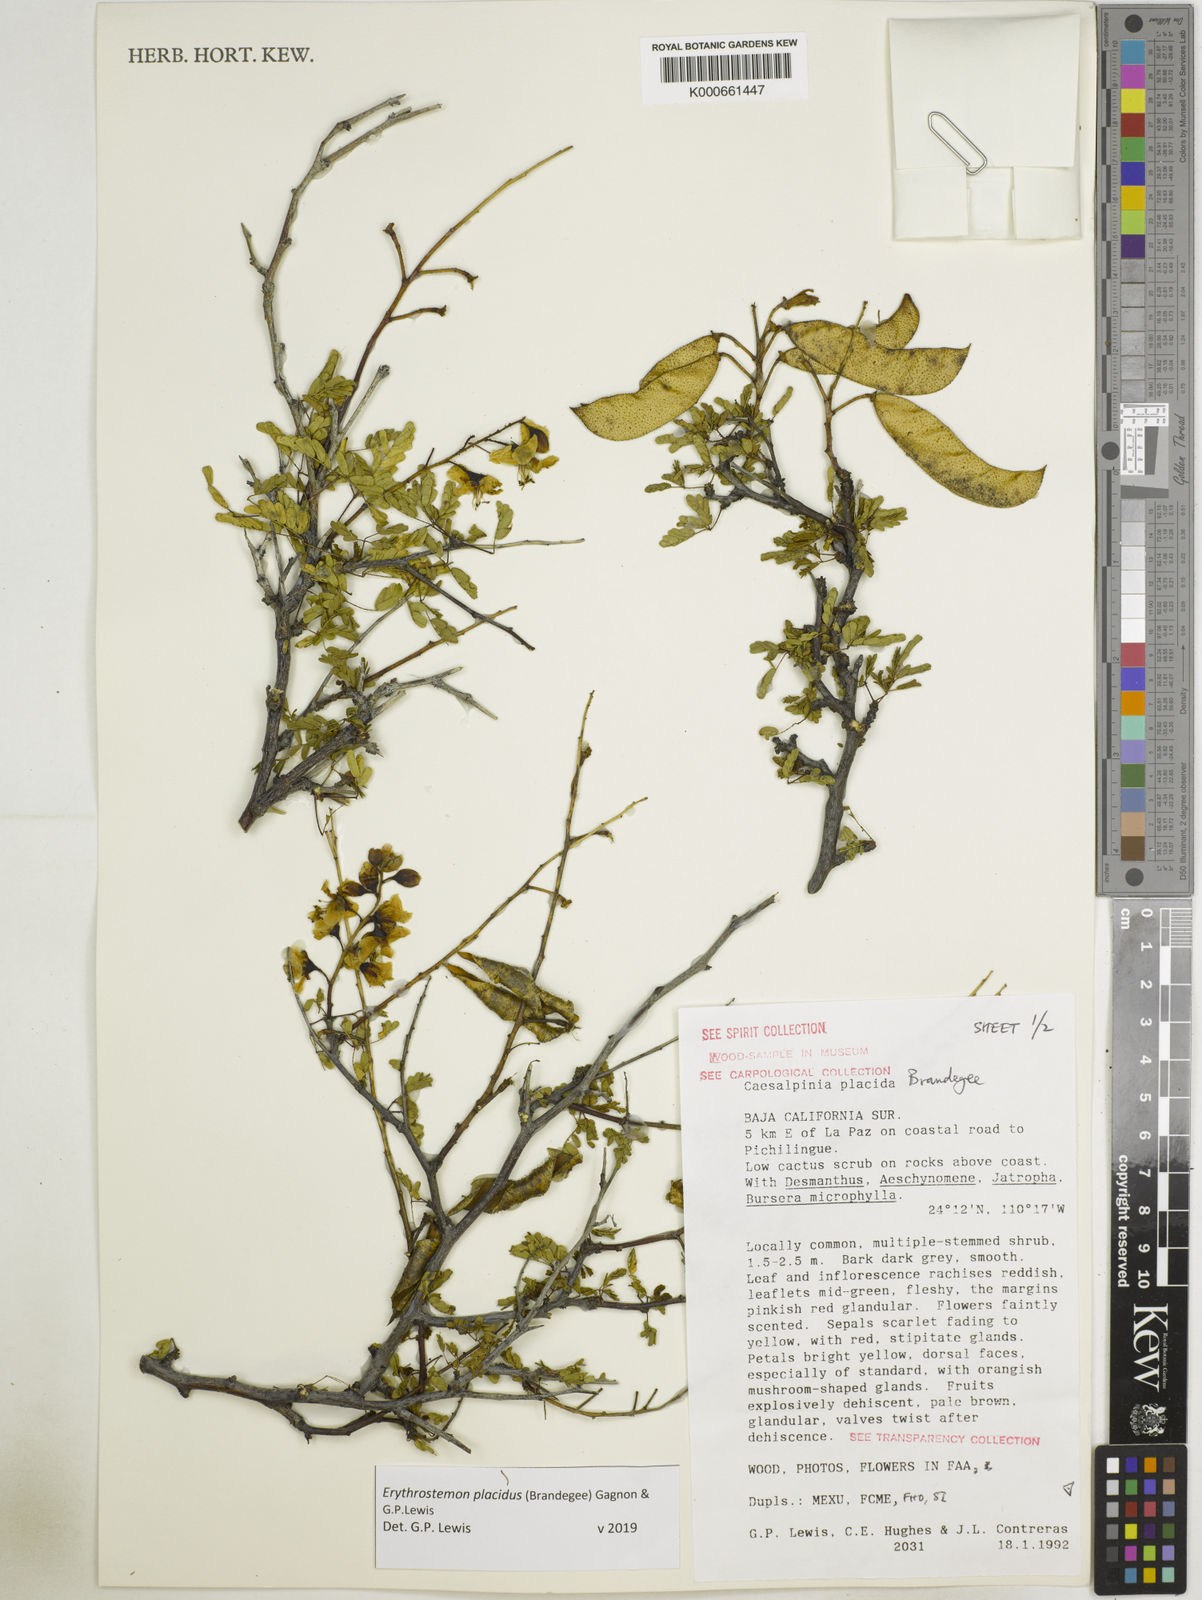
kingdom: Plantae
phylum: Tracheophyta
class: Magnoliopsida
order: Fabales
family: Fabaceae
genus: Erythrostemon
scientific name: Erythrostemon placidus
